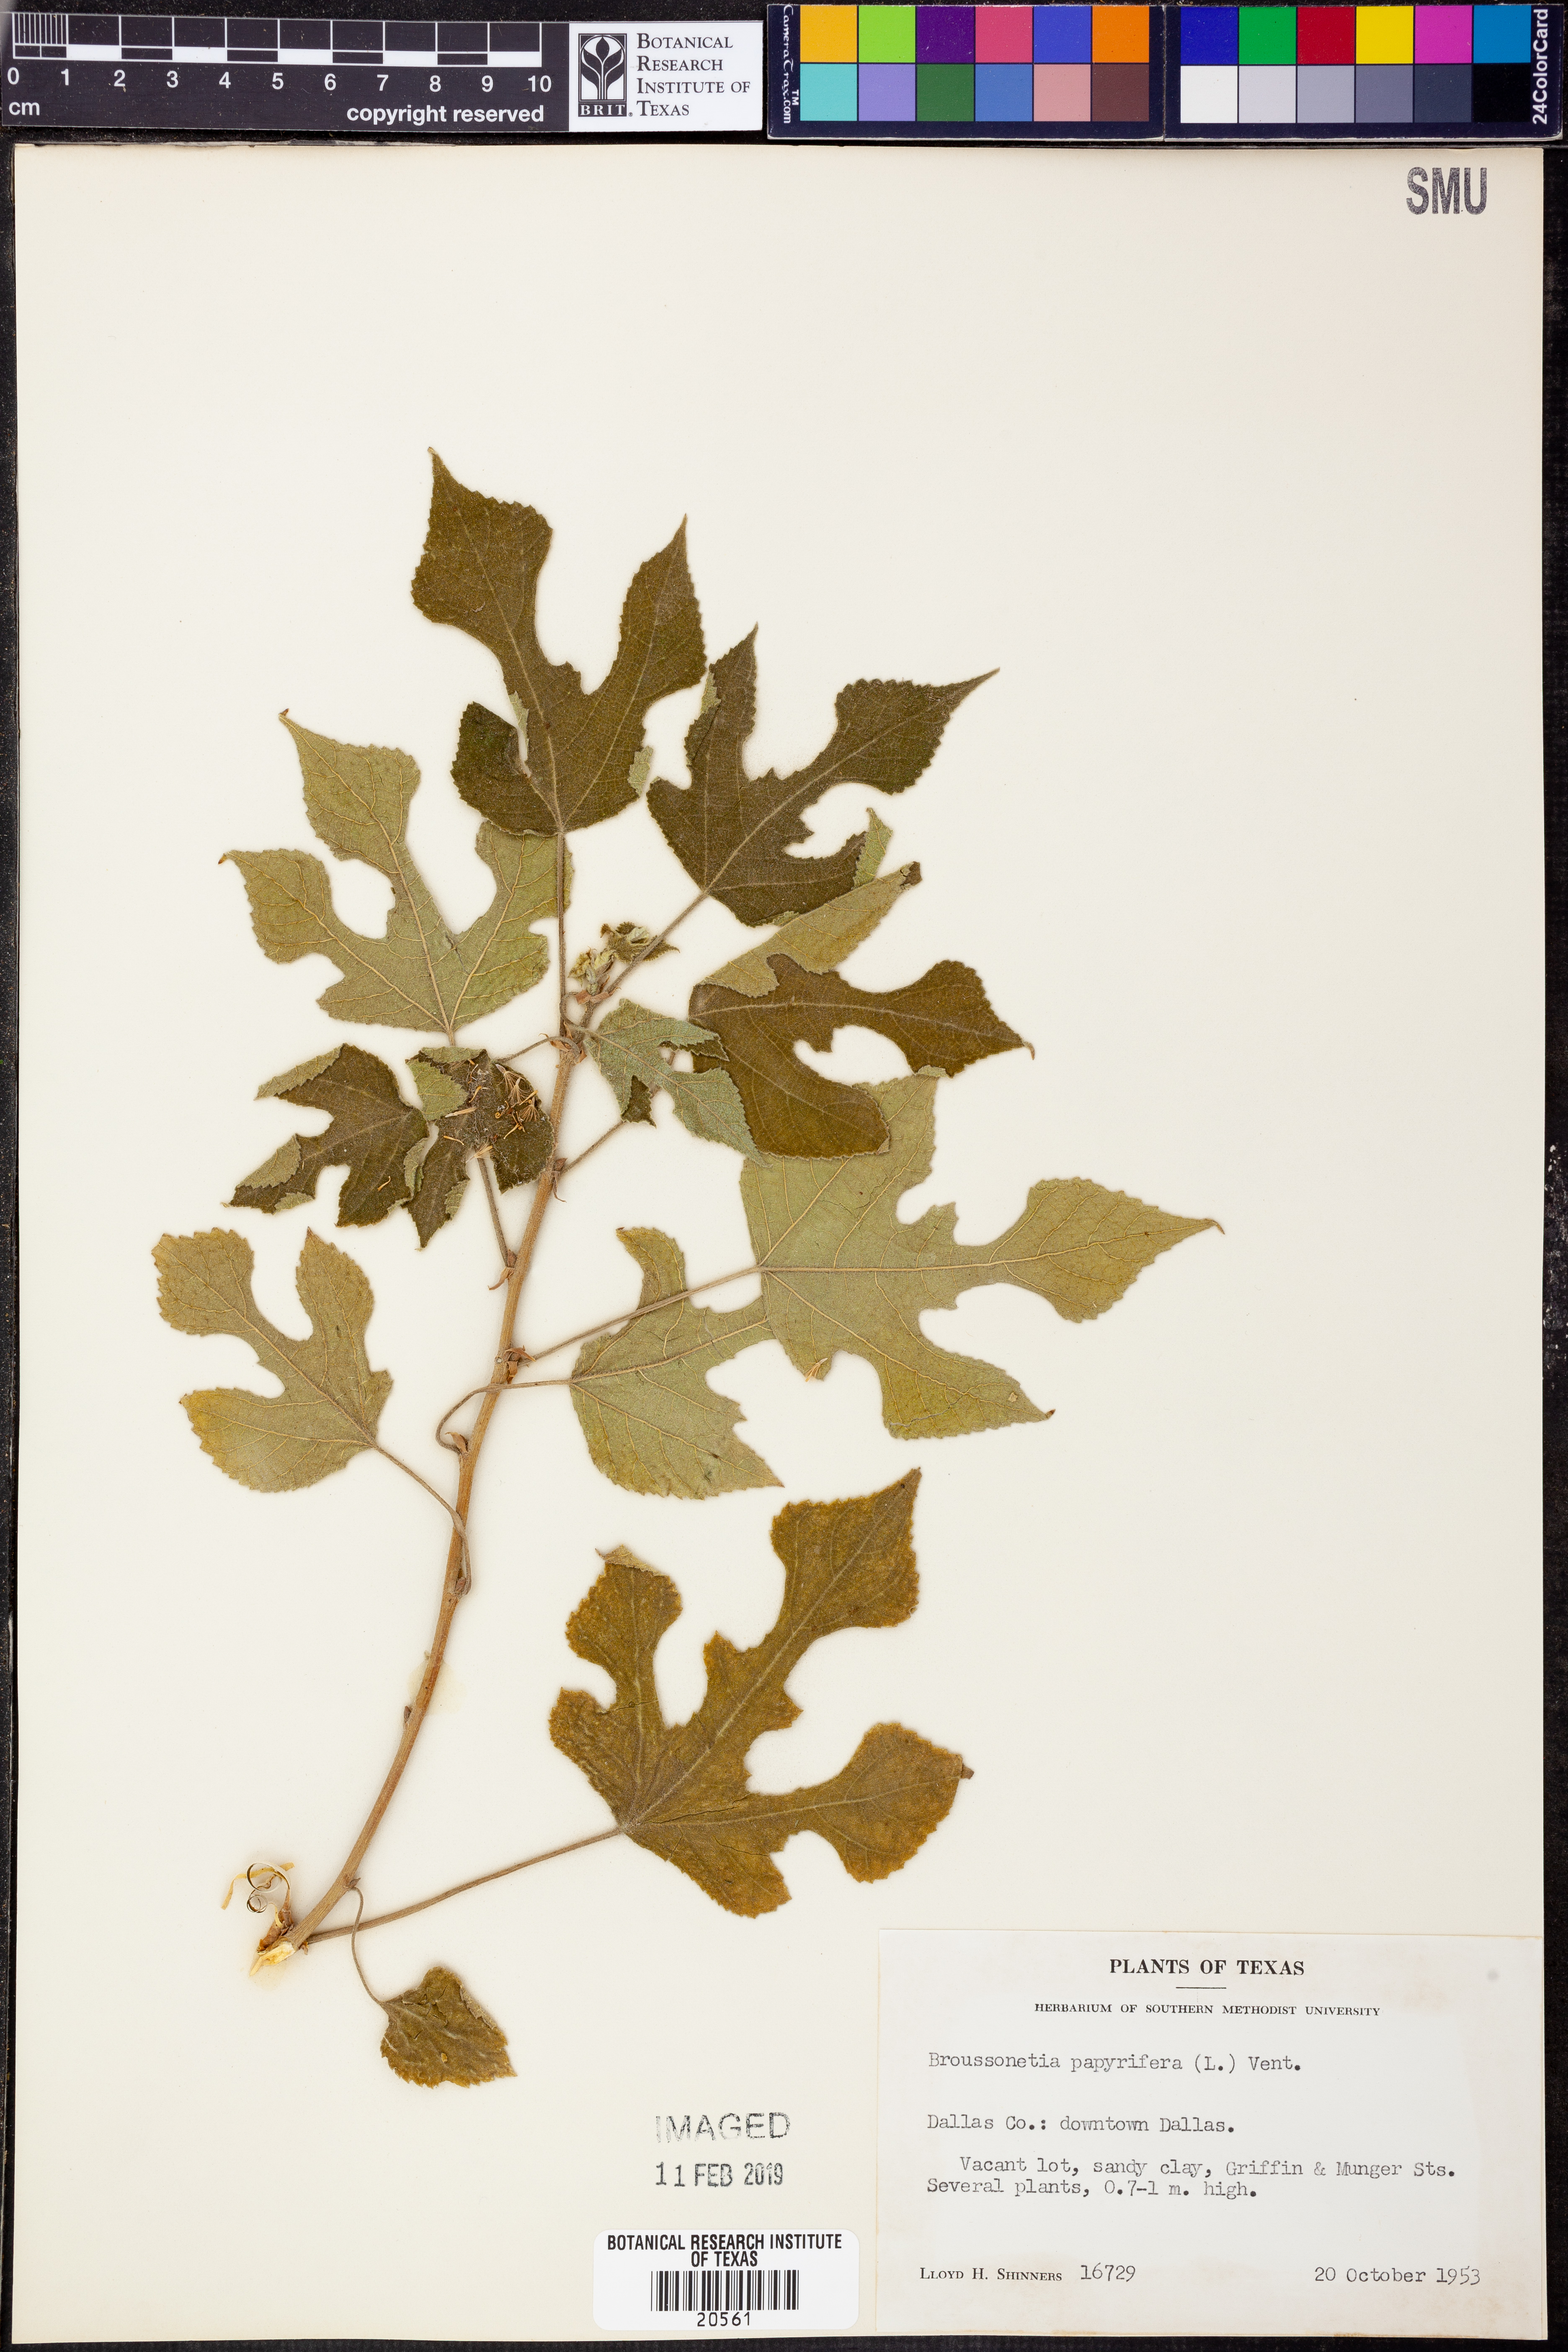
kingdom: Plantae
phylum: Tracheophyta
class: Magnoliopsida
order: Rosales
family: Moraceae
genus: Broussonetia
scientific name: Broussonetia papyrifera
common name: Paper mulberry
